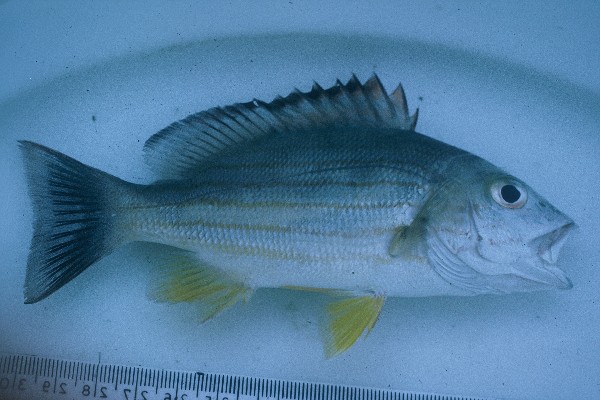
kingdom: Animalia
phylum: Chordata
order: Perciformes
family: Lutjanidae
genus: Lutjanus
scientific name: Lutjanus fulvus
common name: Blacktail snapper
